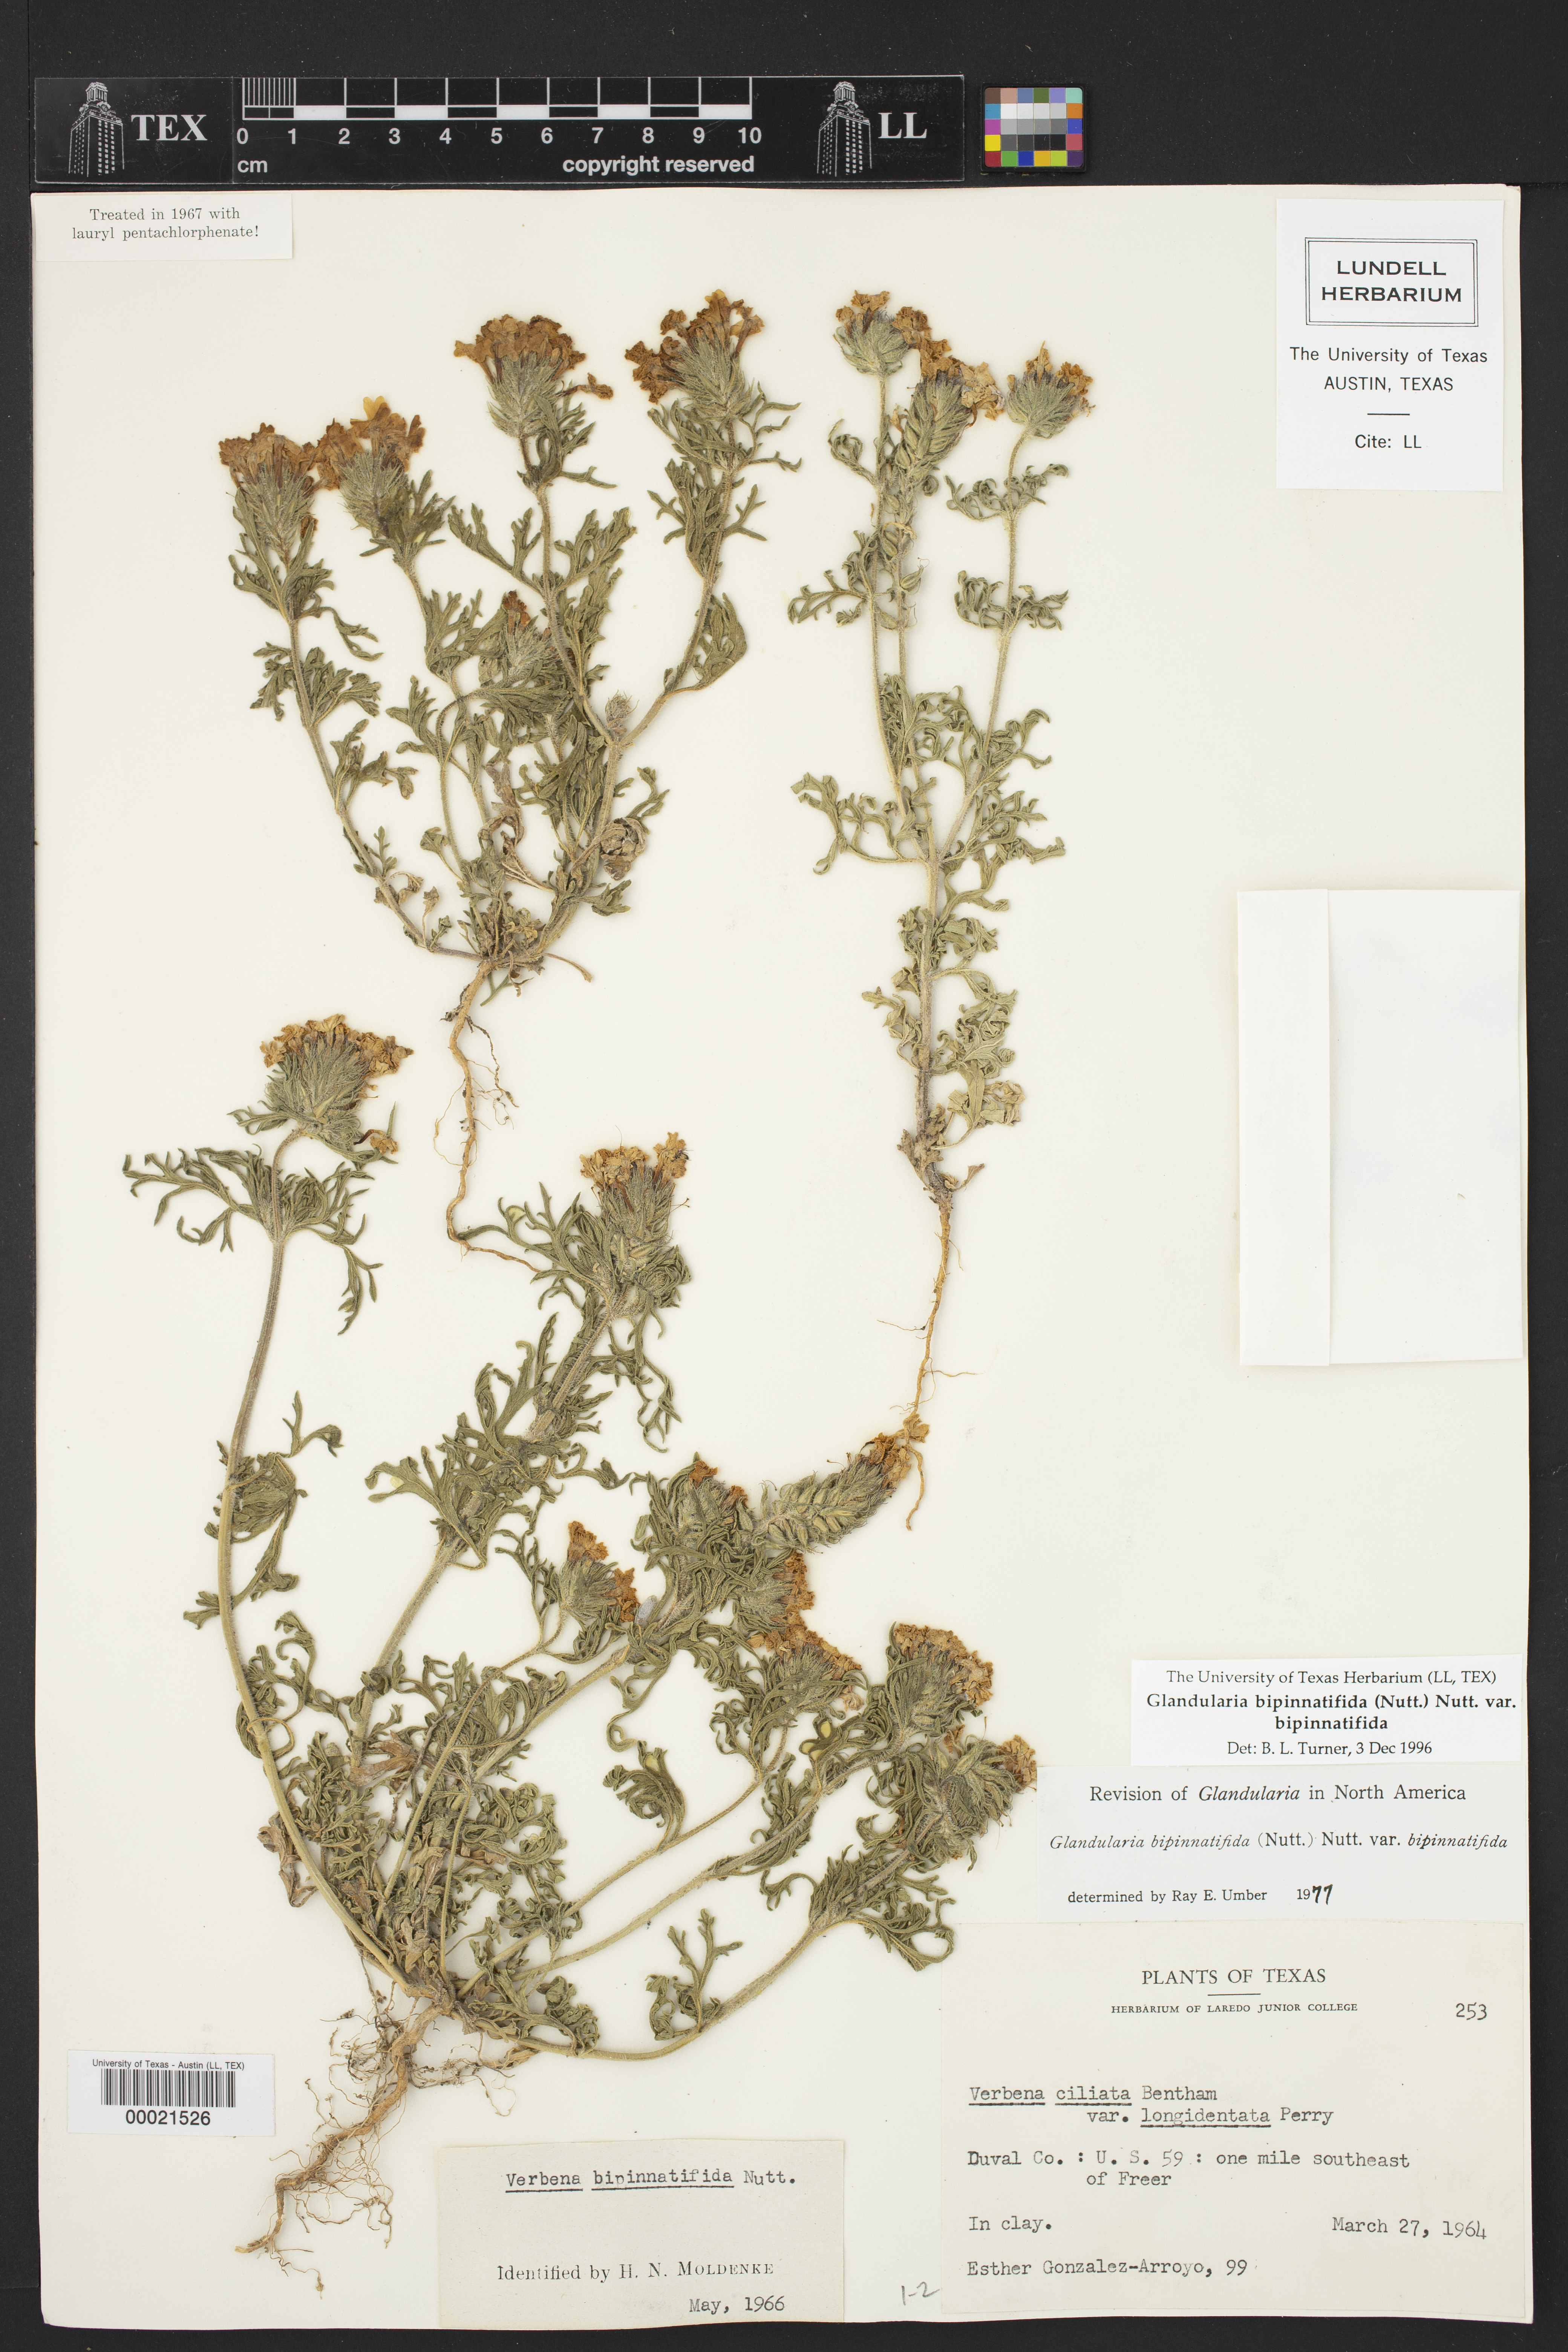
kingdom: Plantae
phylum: Tracheophyta
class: Magnoliopsida
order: Lamiales
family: Verbenaceae
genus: Verbena
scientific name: Verbena bipinnatifida
